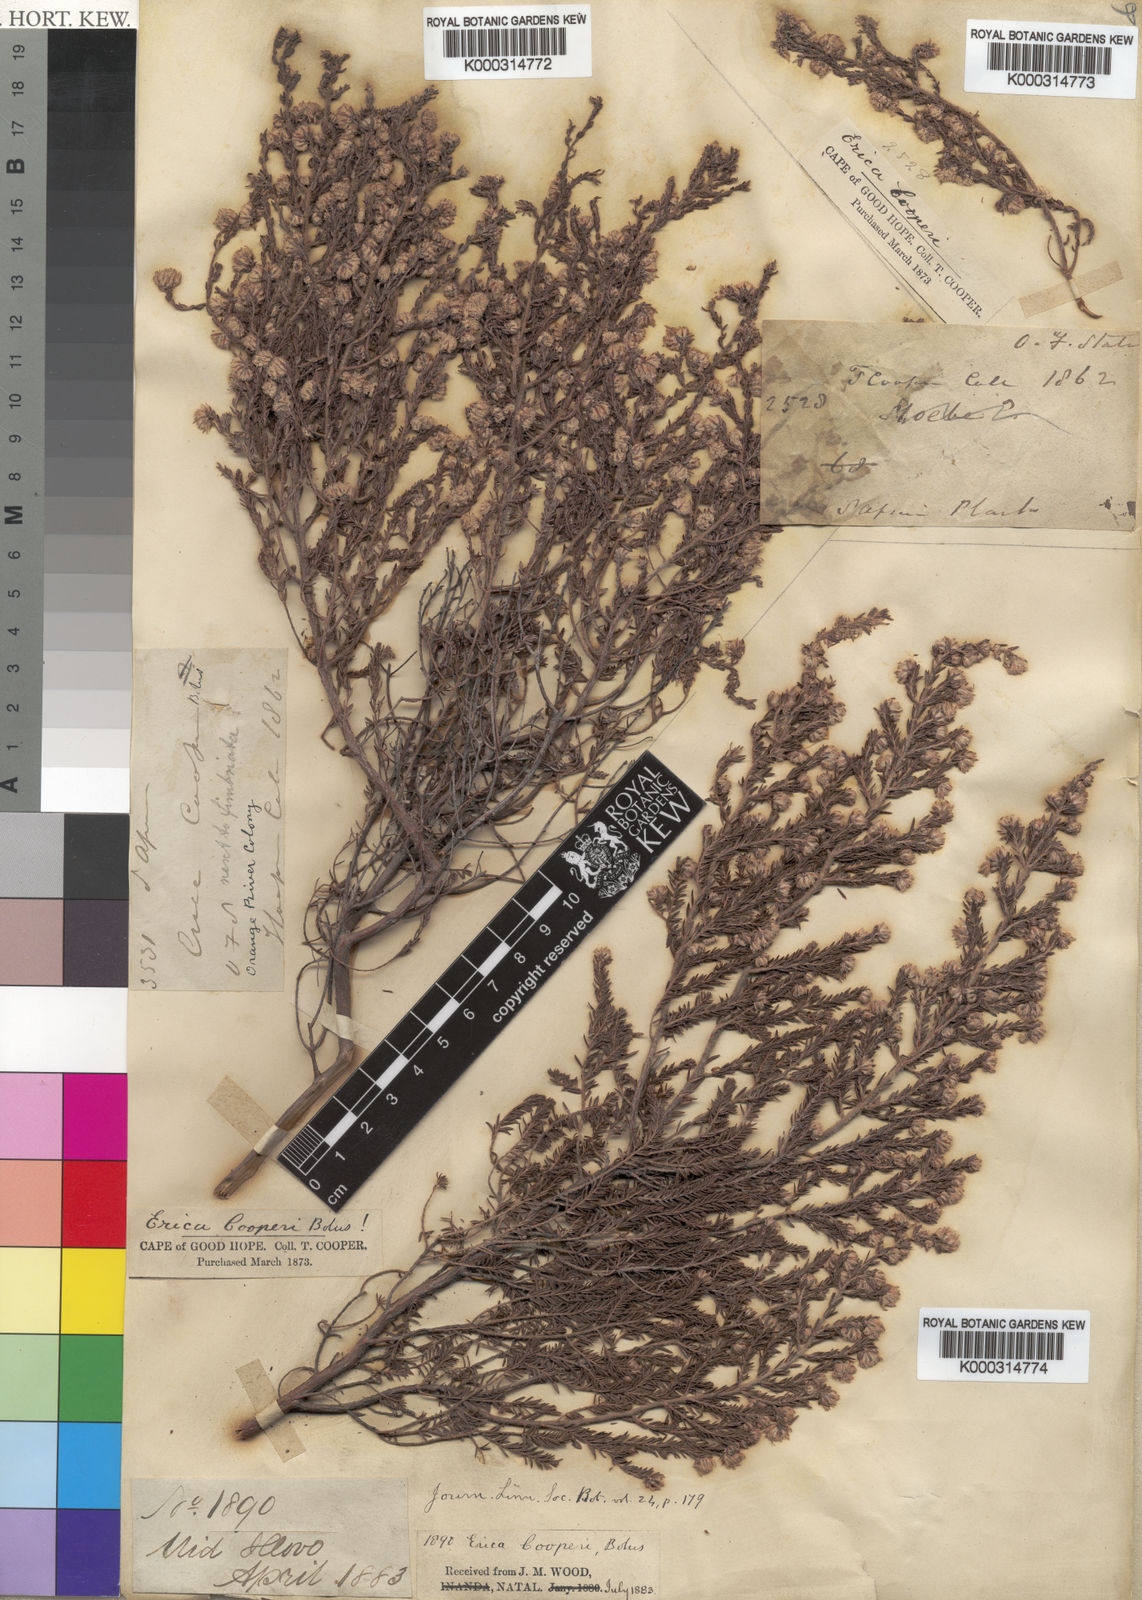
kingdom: Plantae
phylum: Tracheophyta
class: Magnoliopsida
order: Ericales
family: Ericaceae
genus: Erica
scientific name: Erica cooperi
